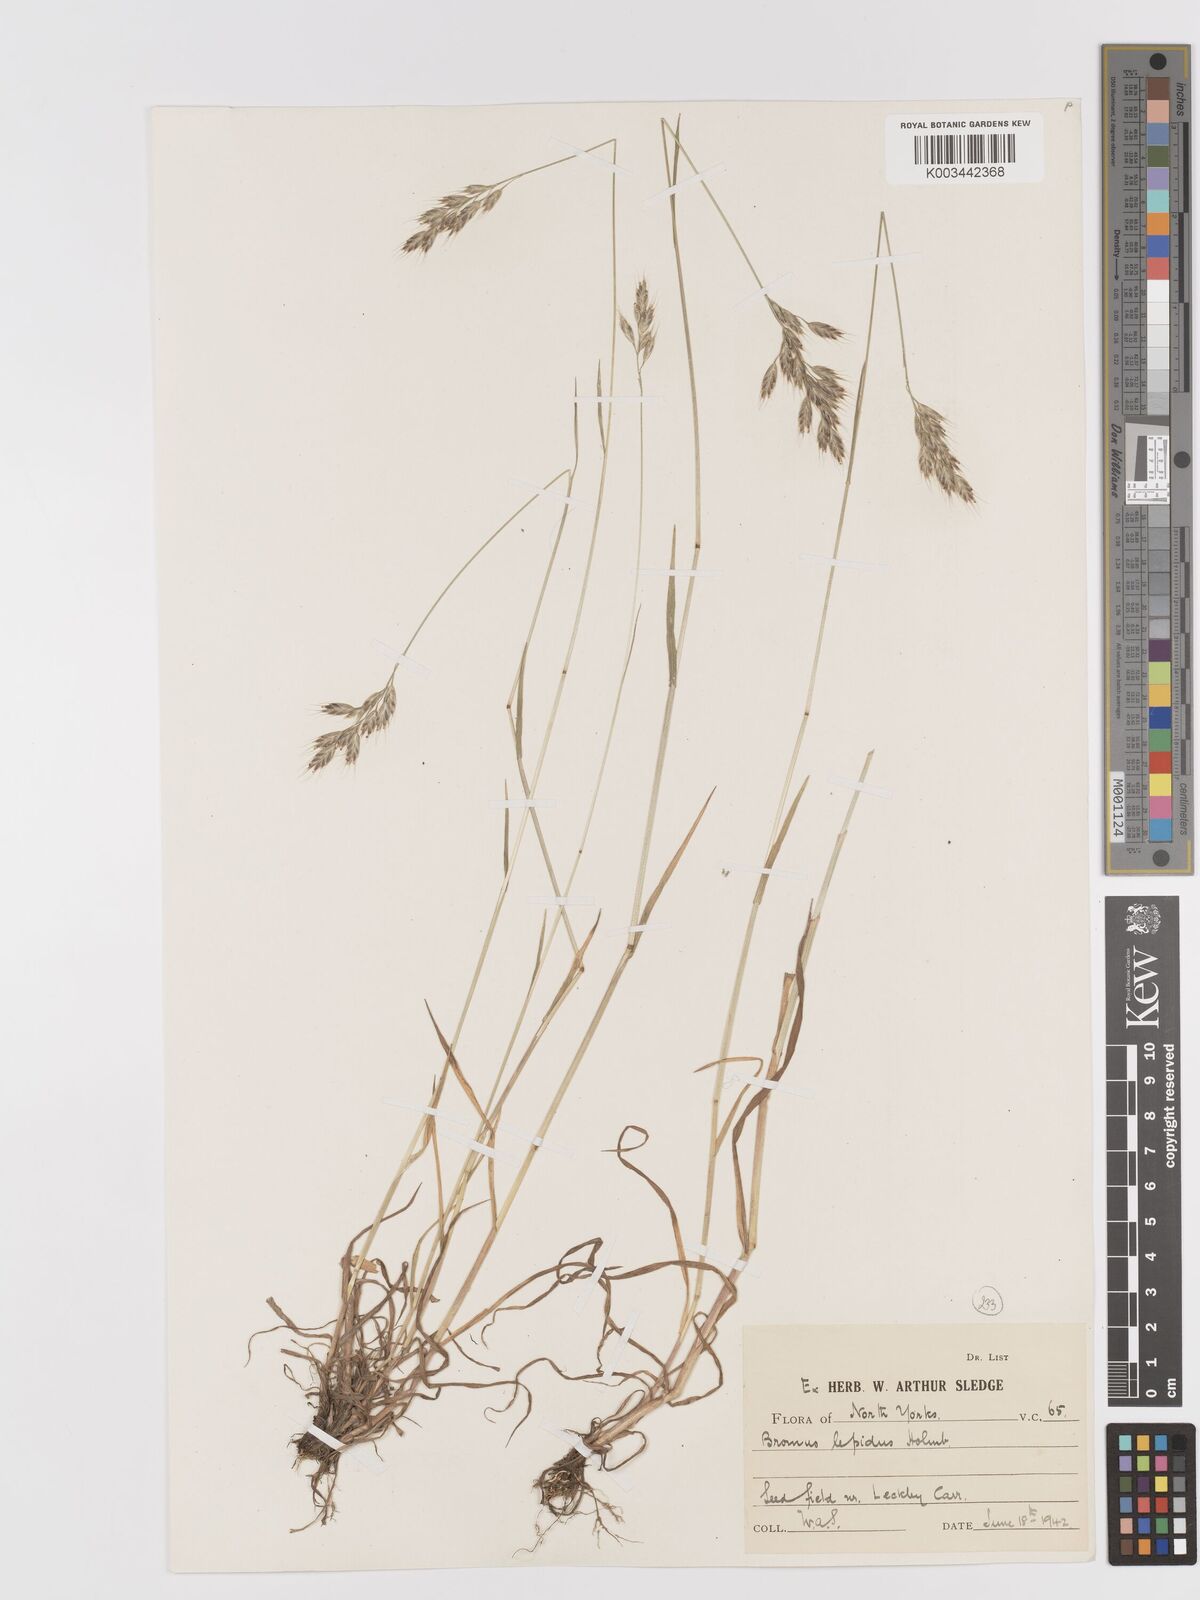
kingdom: Plantae
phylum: Tracheophyta
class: Liliopsida
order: Poales
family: Poaceae
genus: Bromus
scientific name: Bromus lepidus
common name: Slender soft-brome
